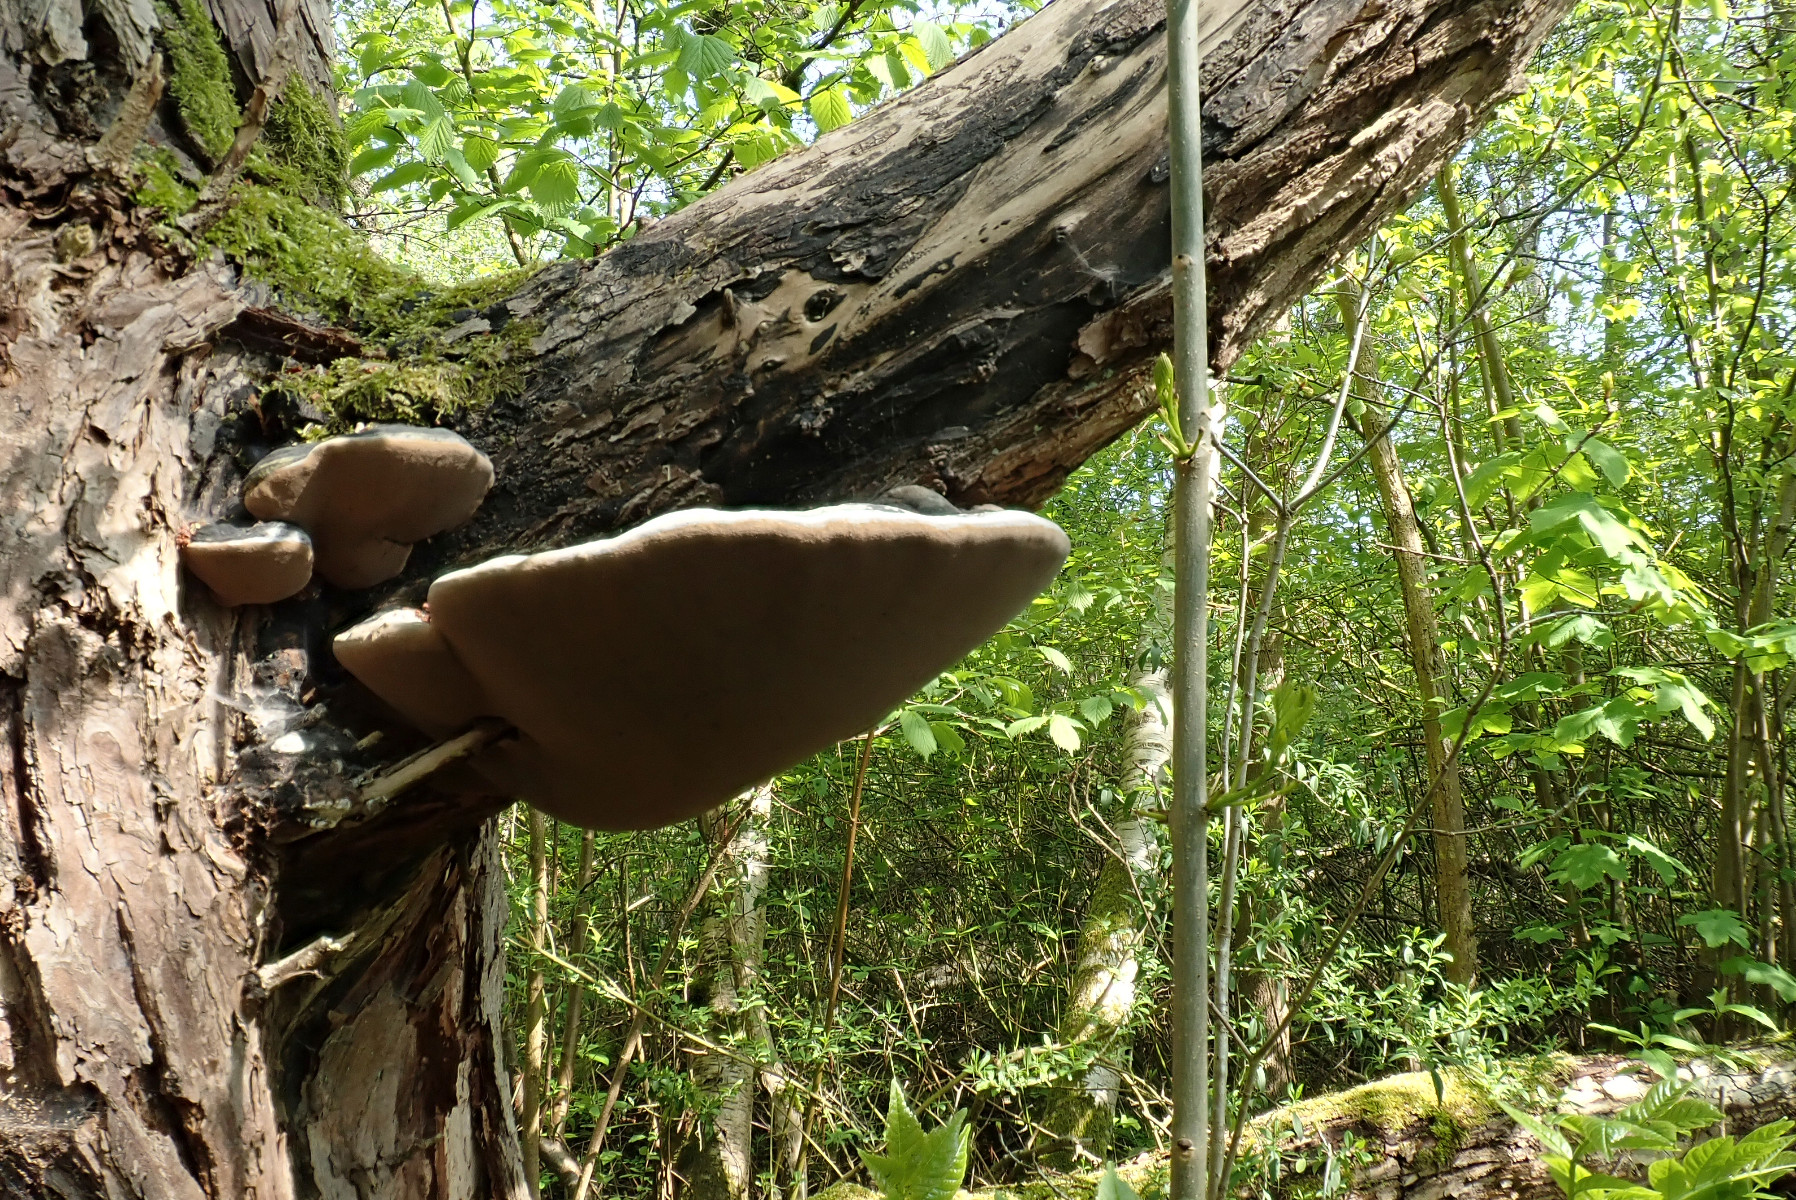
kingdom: Fungi
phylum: Basidiomycota
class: Agaricomycetes
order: Hymenochaetales
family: Hymenochaetaceae
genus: Phellinus
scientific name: Phellinus igniarius
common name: almindelig ildporesvamp
